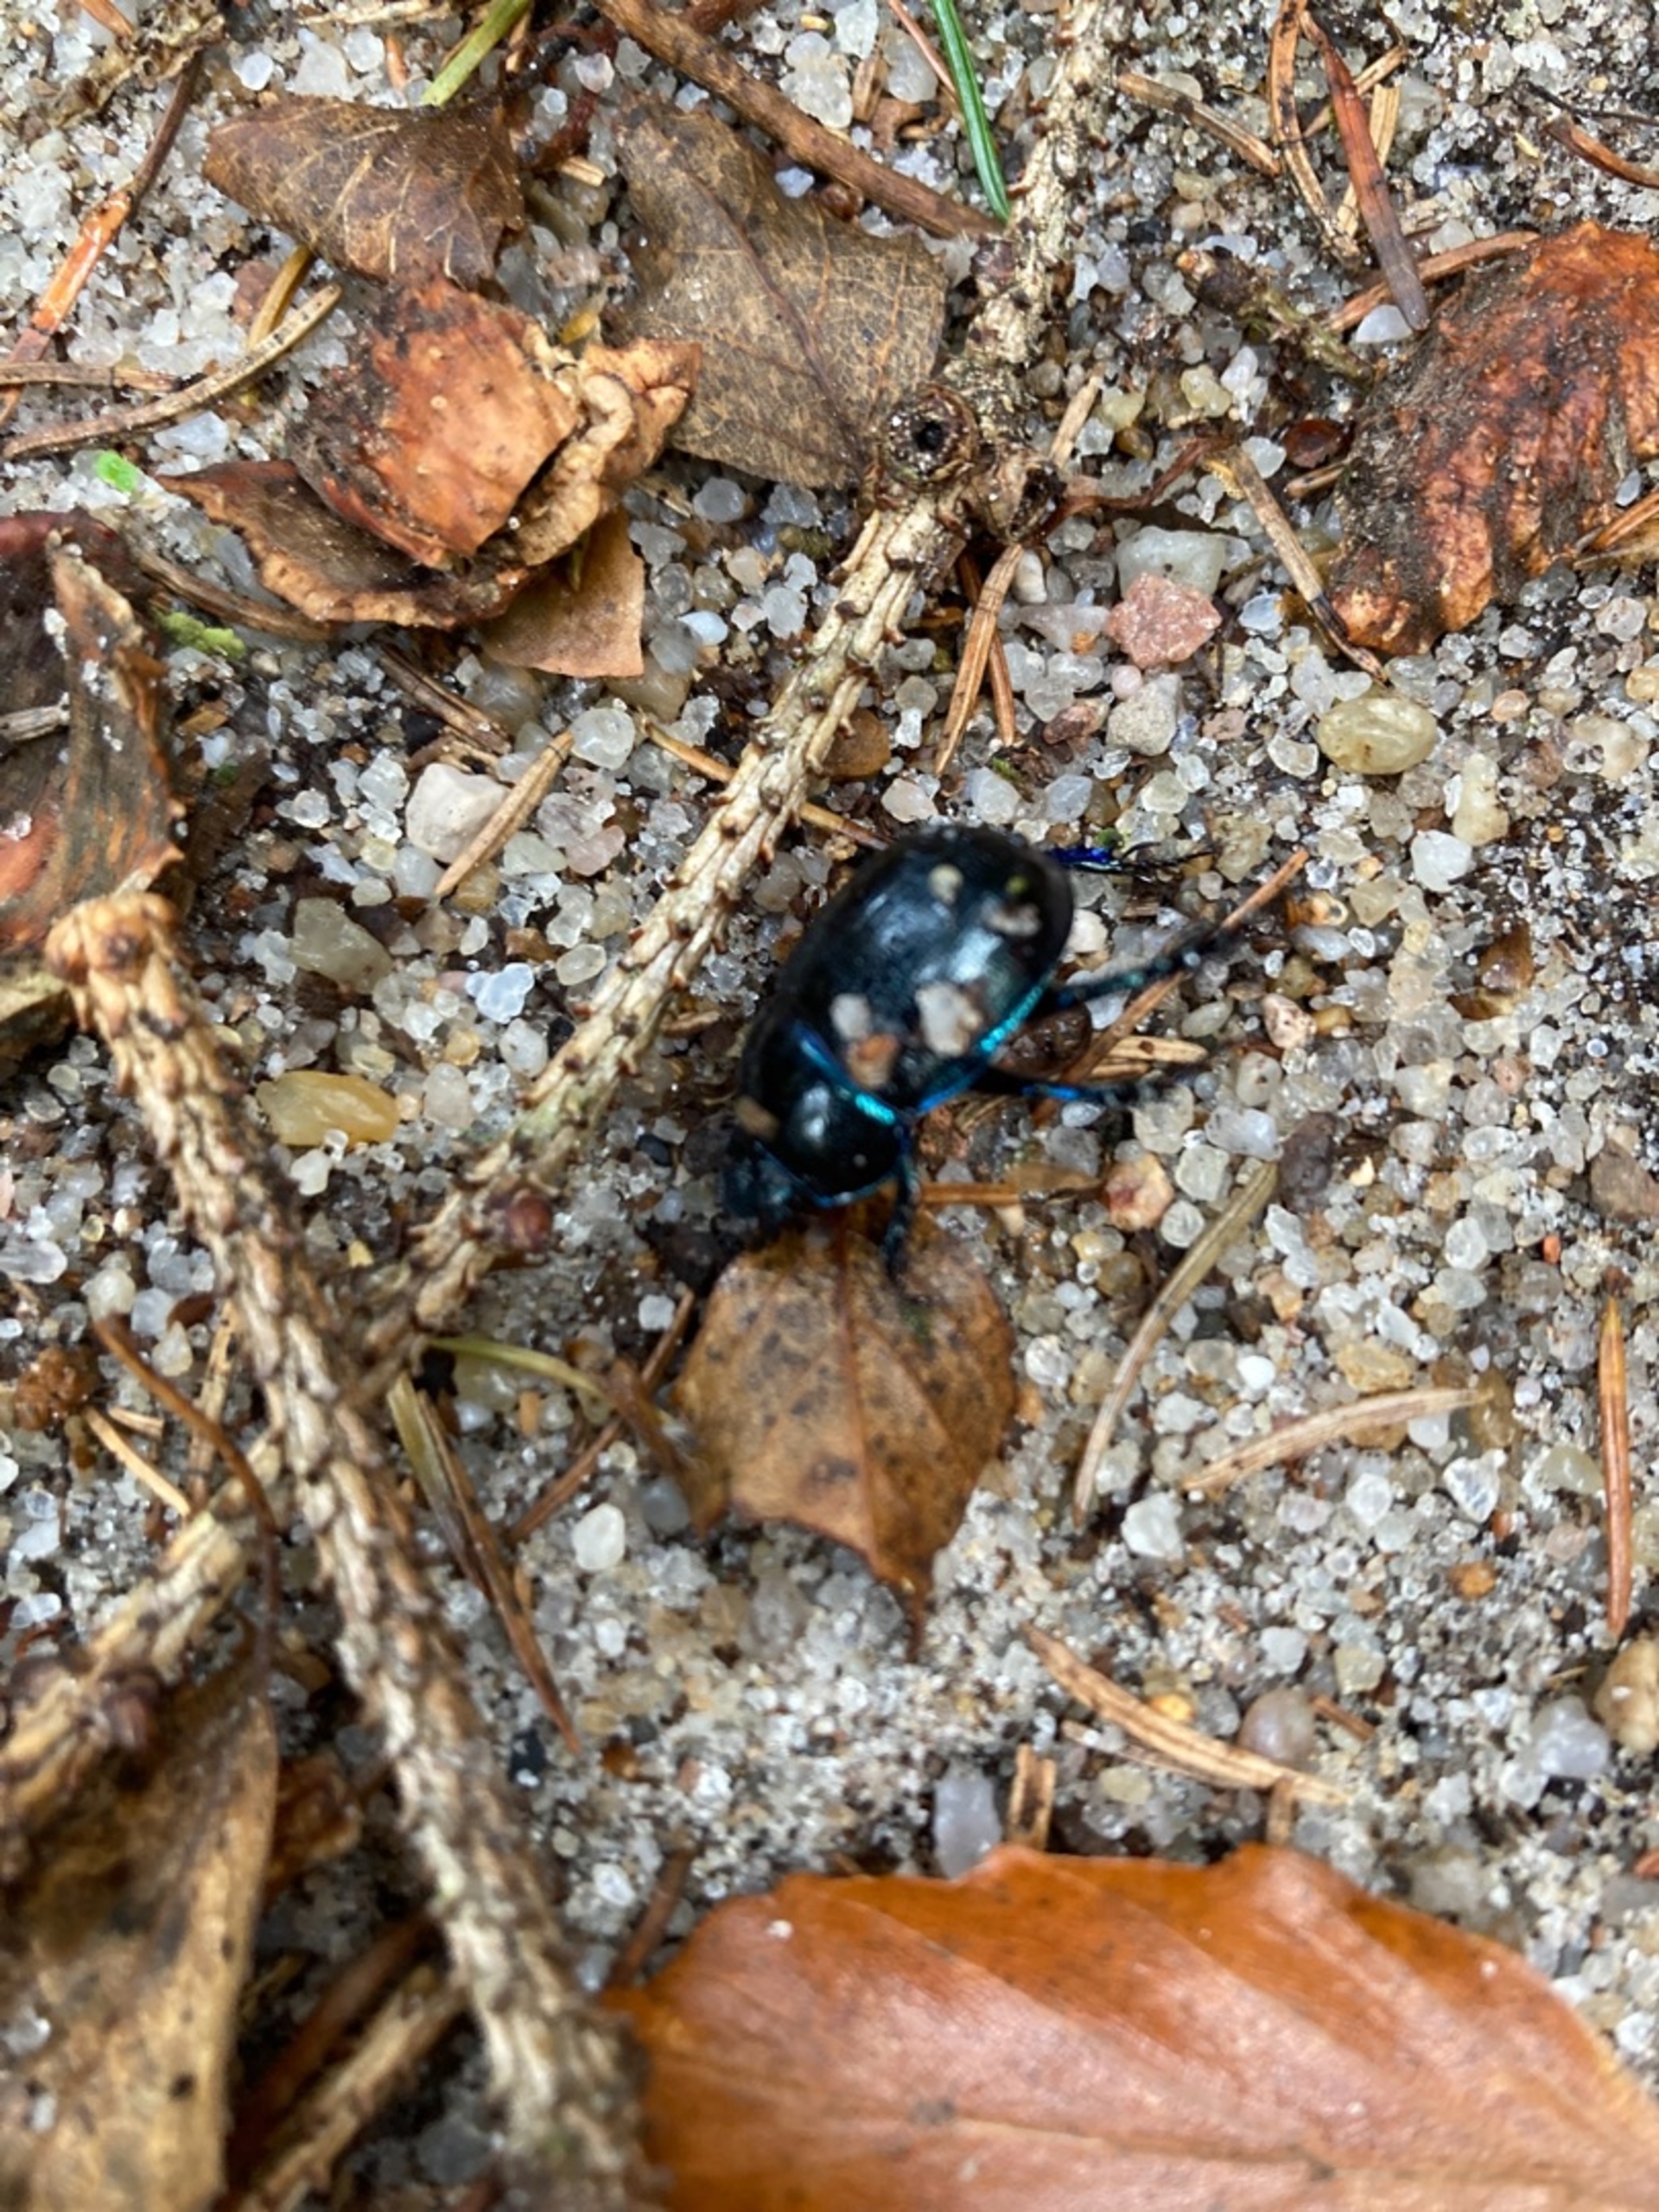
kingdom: Animalia
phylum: Arthropoda
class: Insecta
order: Coleoptera
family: Geotrupidae
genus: Anoplotrupes
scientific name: Anoplotrupes stercorosus
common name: Skovskarnbasse
